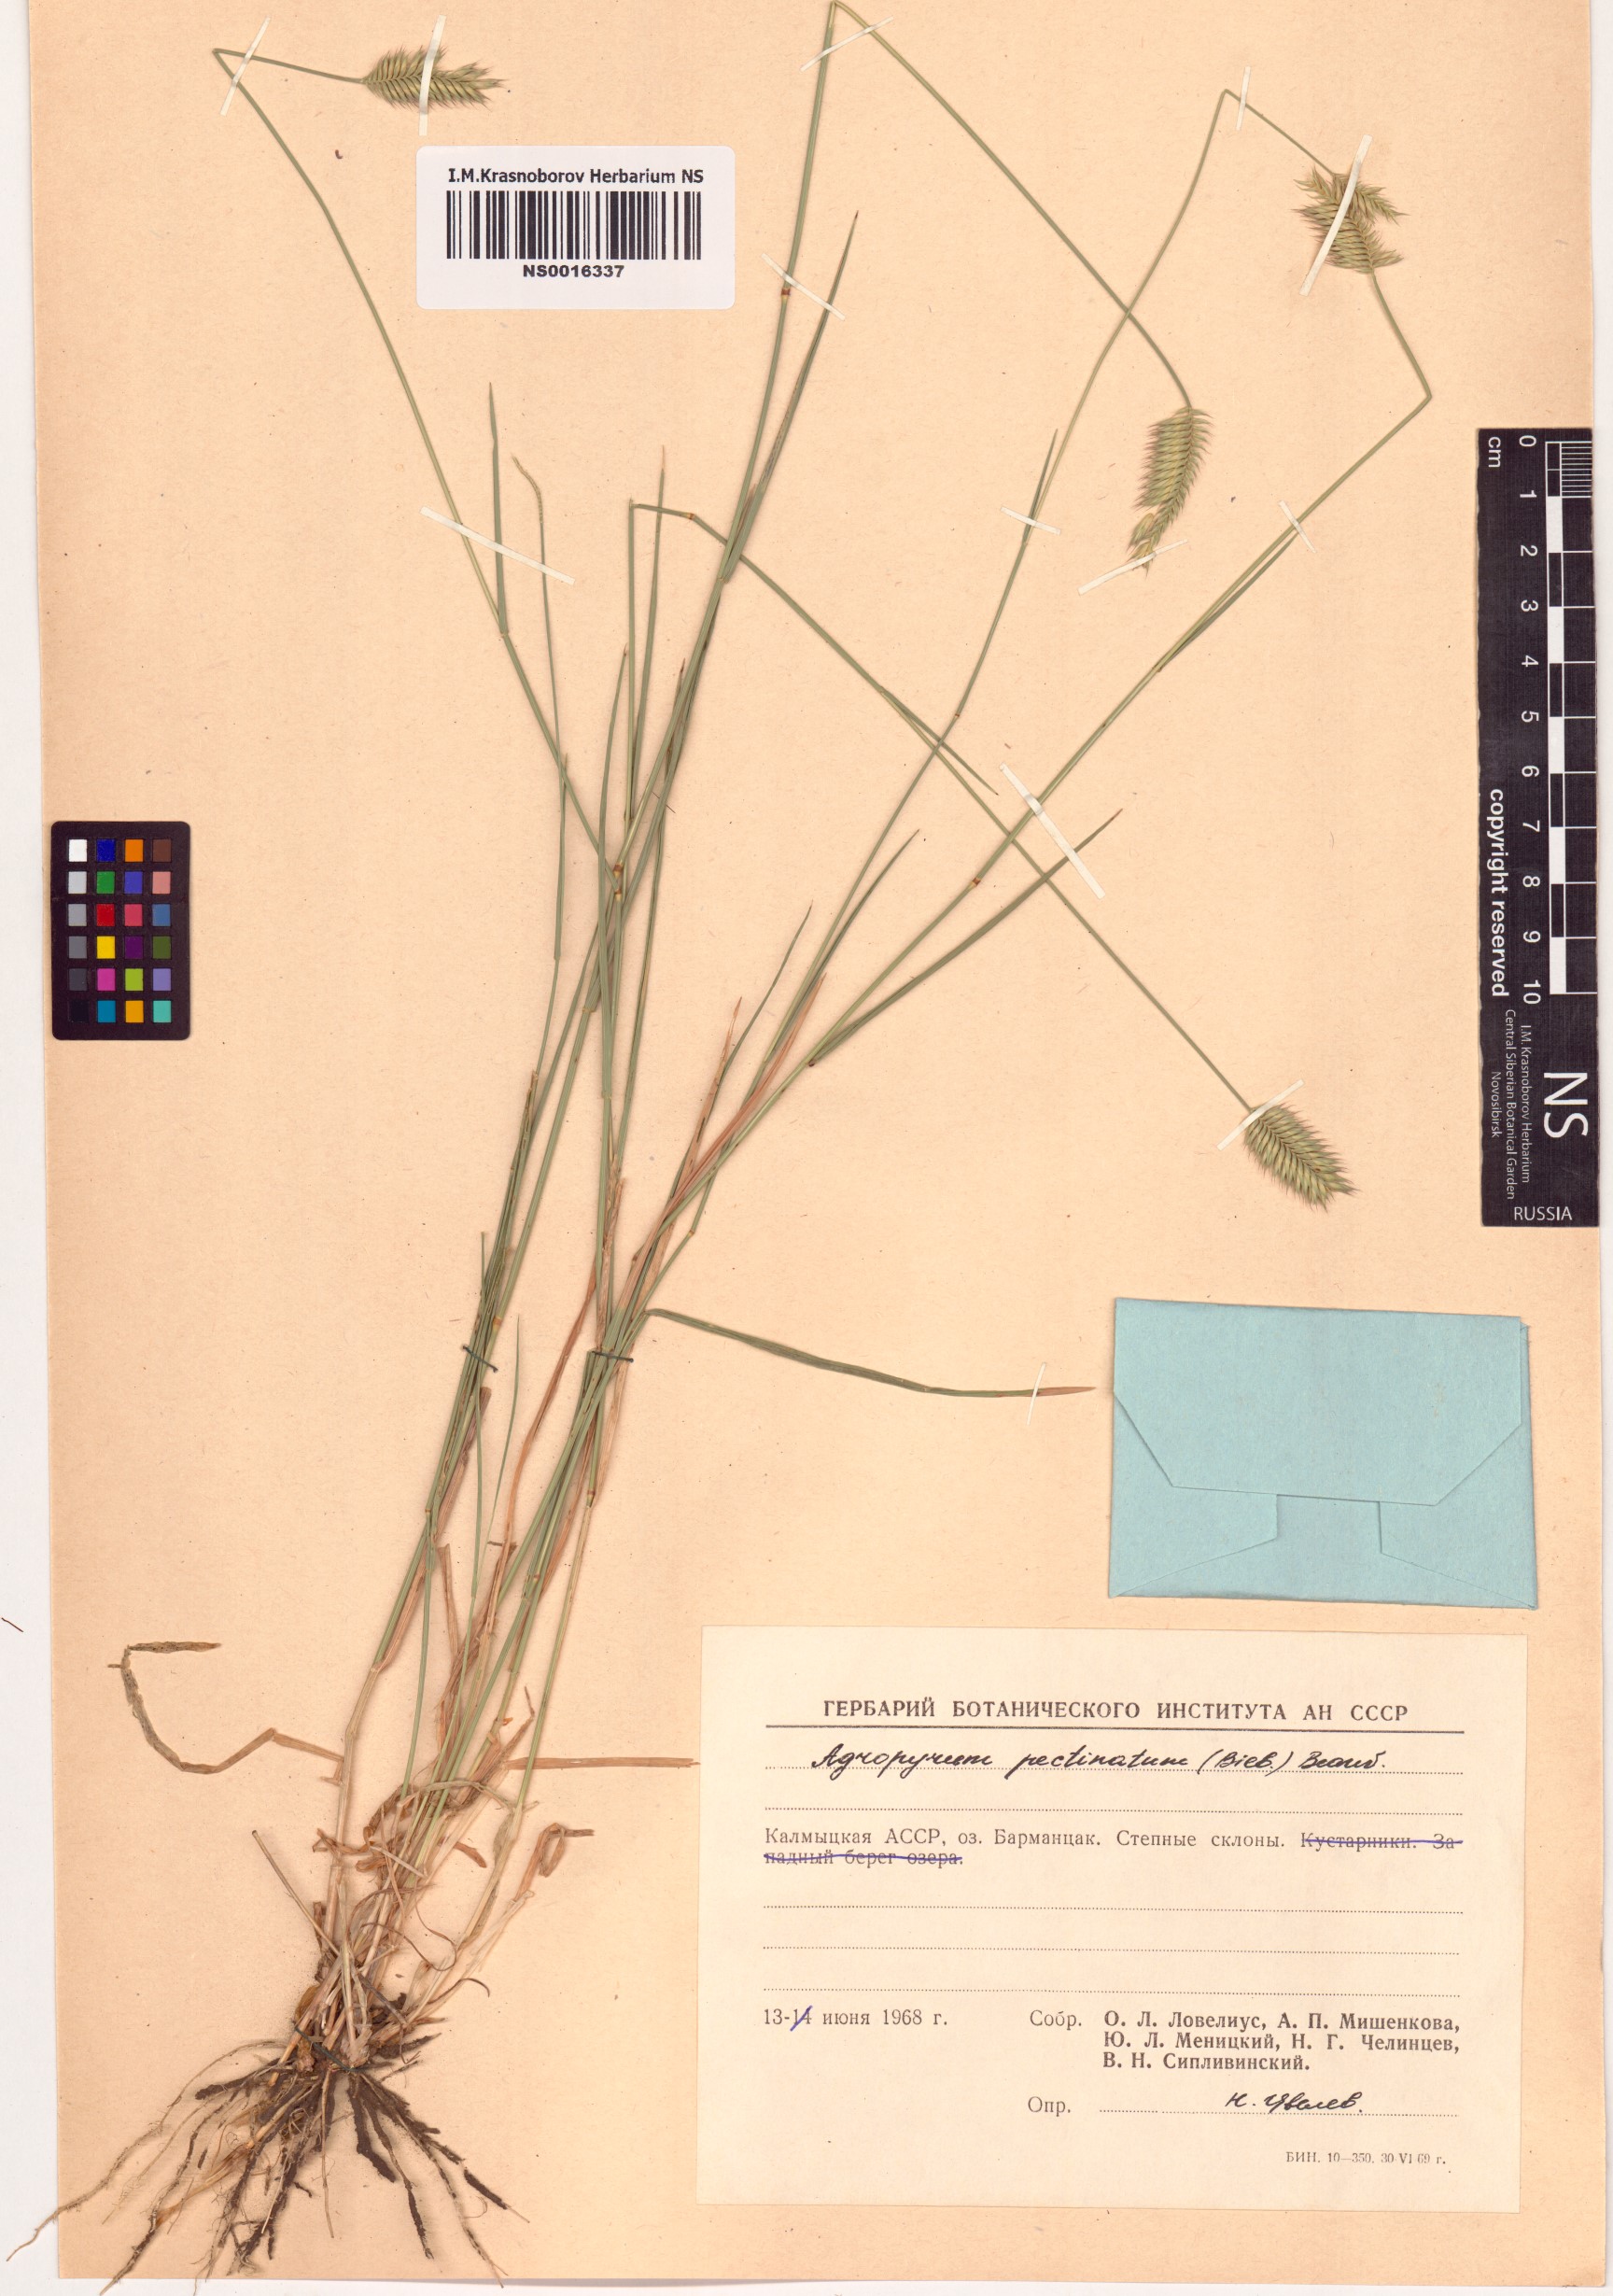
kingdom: Plantae
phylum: Tracheophyta
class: Liliopsida
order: Poales
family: Poaceae
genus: Agropyron
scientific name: Agropyron cristatum
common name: Crested wheatgrass
